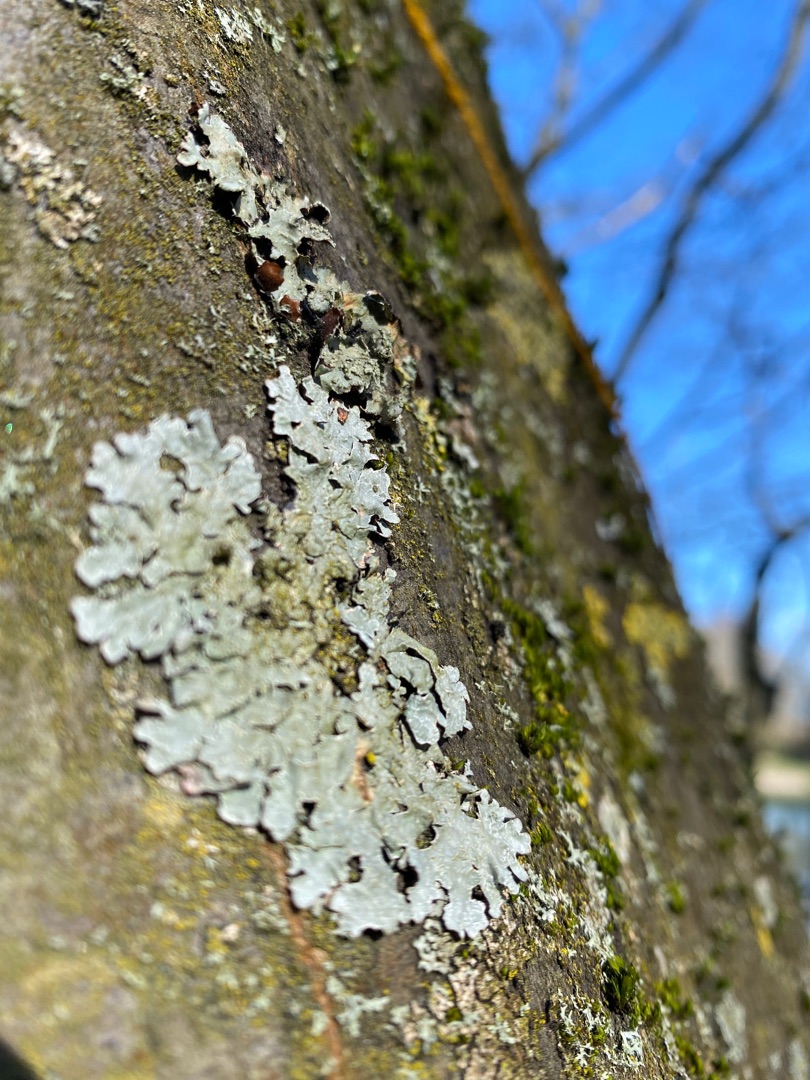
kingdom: Fungi
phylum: Ascomycota
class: Lecanoromycetes
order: Lecanorales
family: Parmeliaceae
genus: Parmelia
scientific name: Parmelia sulcata
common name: Rynket skållav
